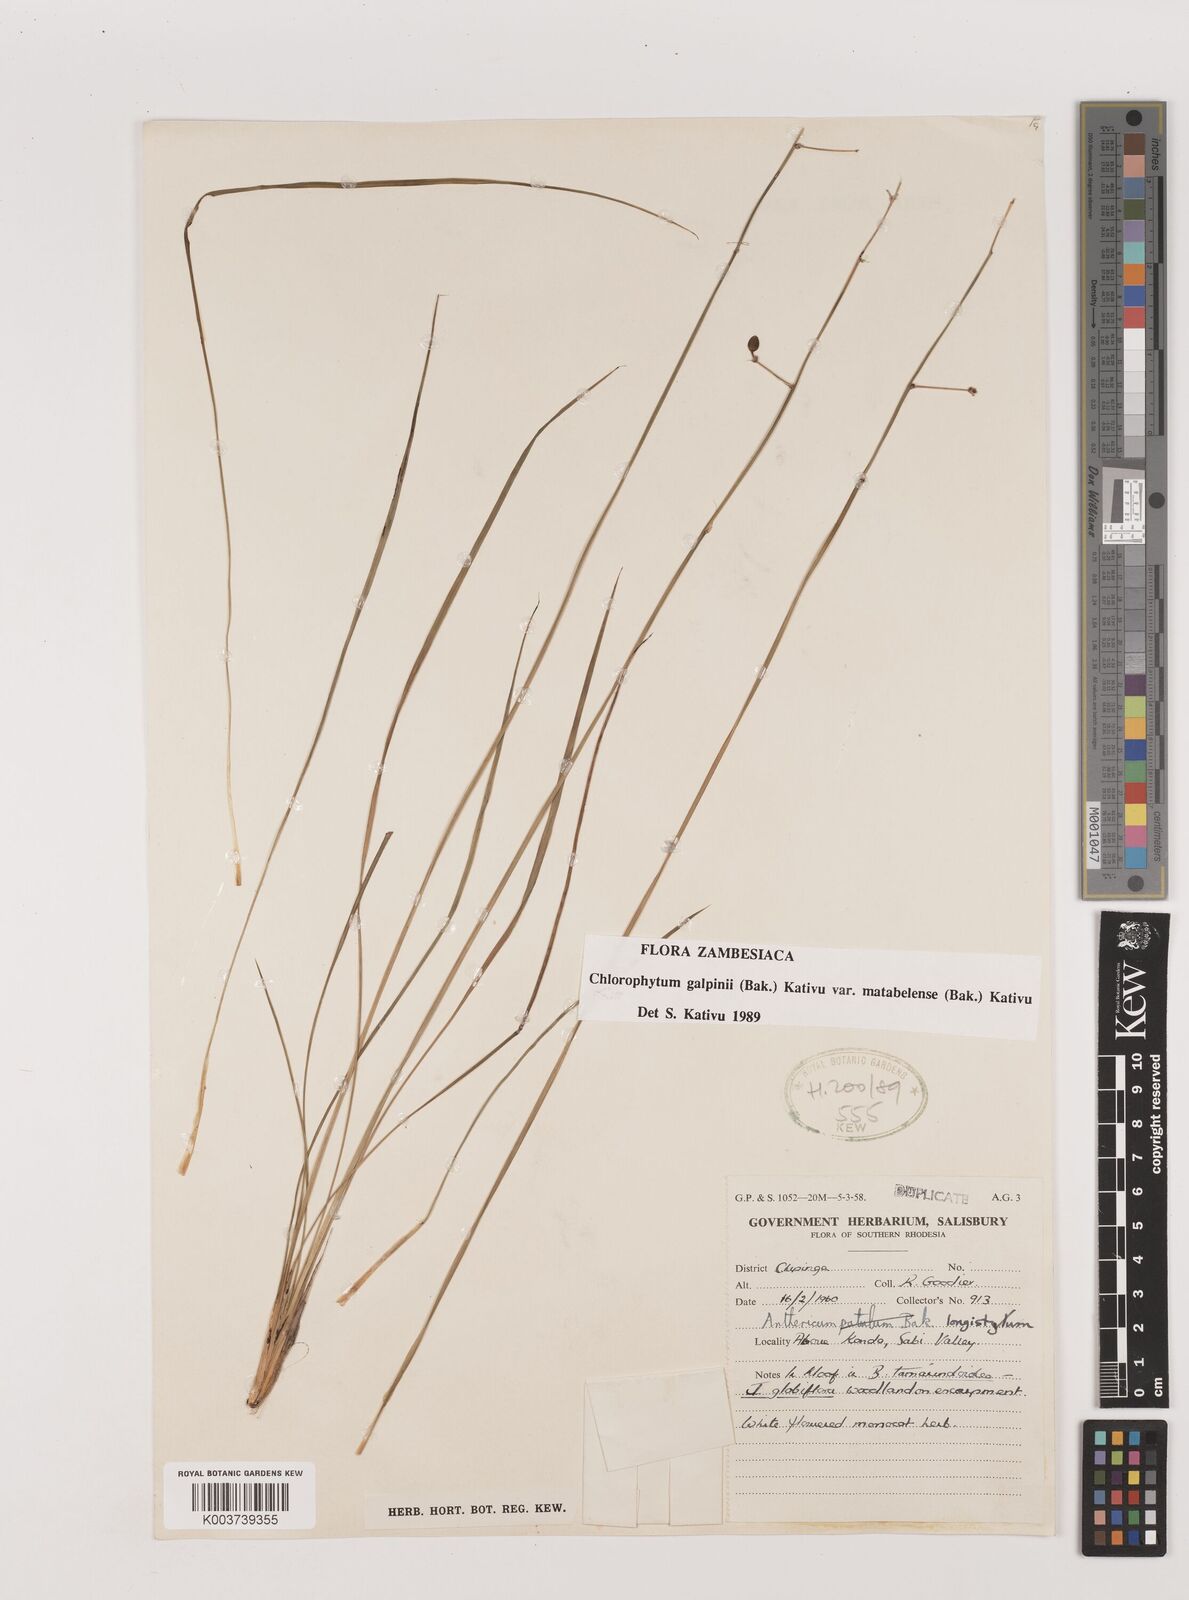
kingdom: Plantae
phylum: Tracheophyta
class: Liliopsida
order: Asparagales
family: Asparagaceae
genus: Chlorophytum
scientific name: Chlorophytum galpinii
